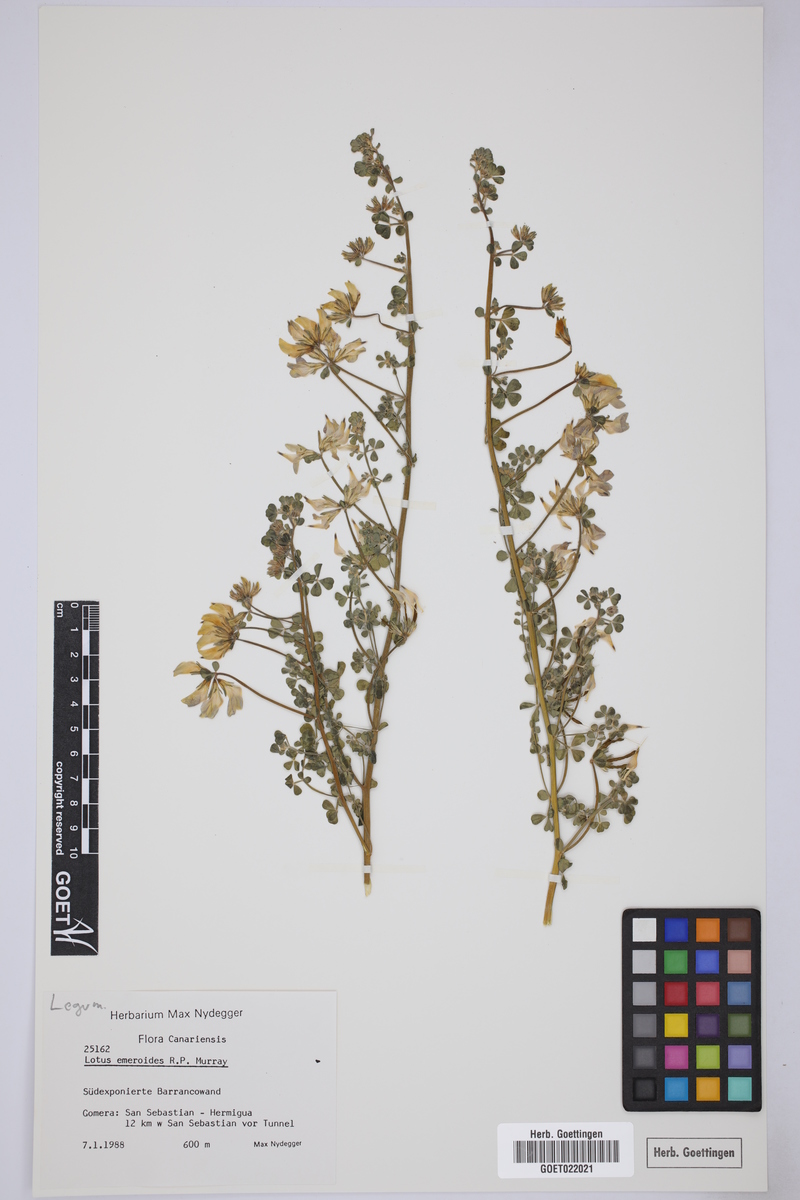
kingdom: Plantae
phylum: Tracheophyta
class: Magnoliopsida
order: Fabales
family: Fabaceae
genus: Lotus
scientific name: Lotus emeroides
